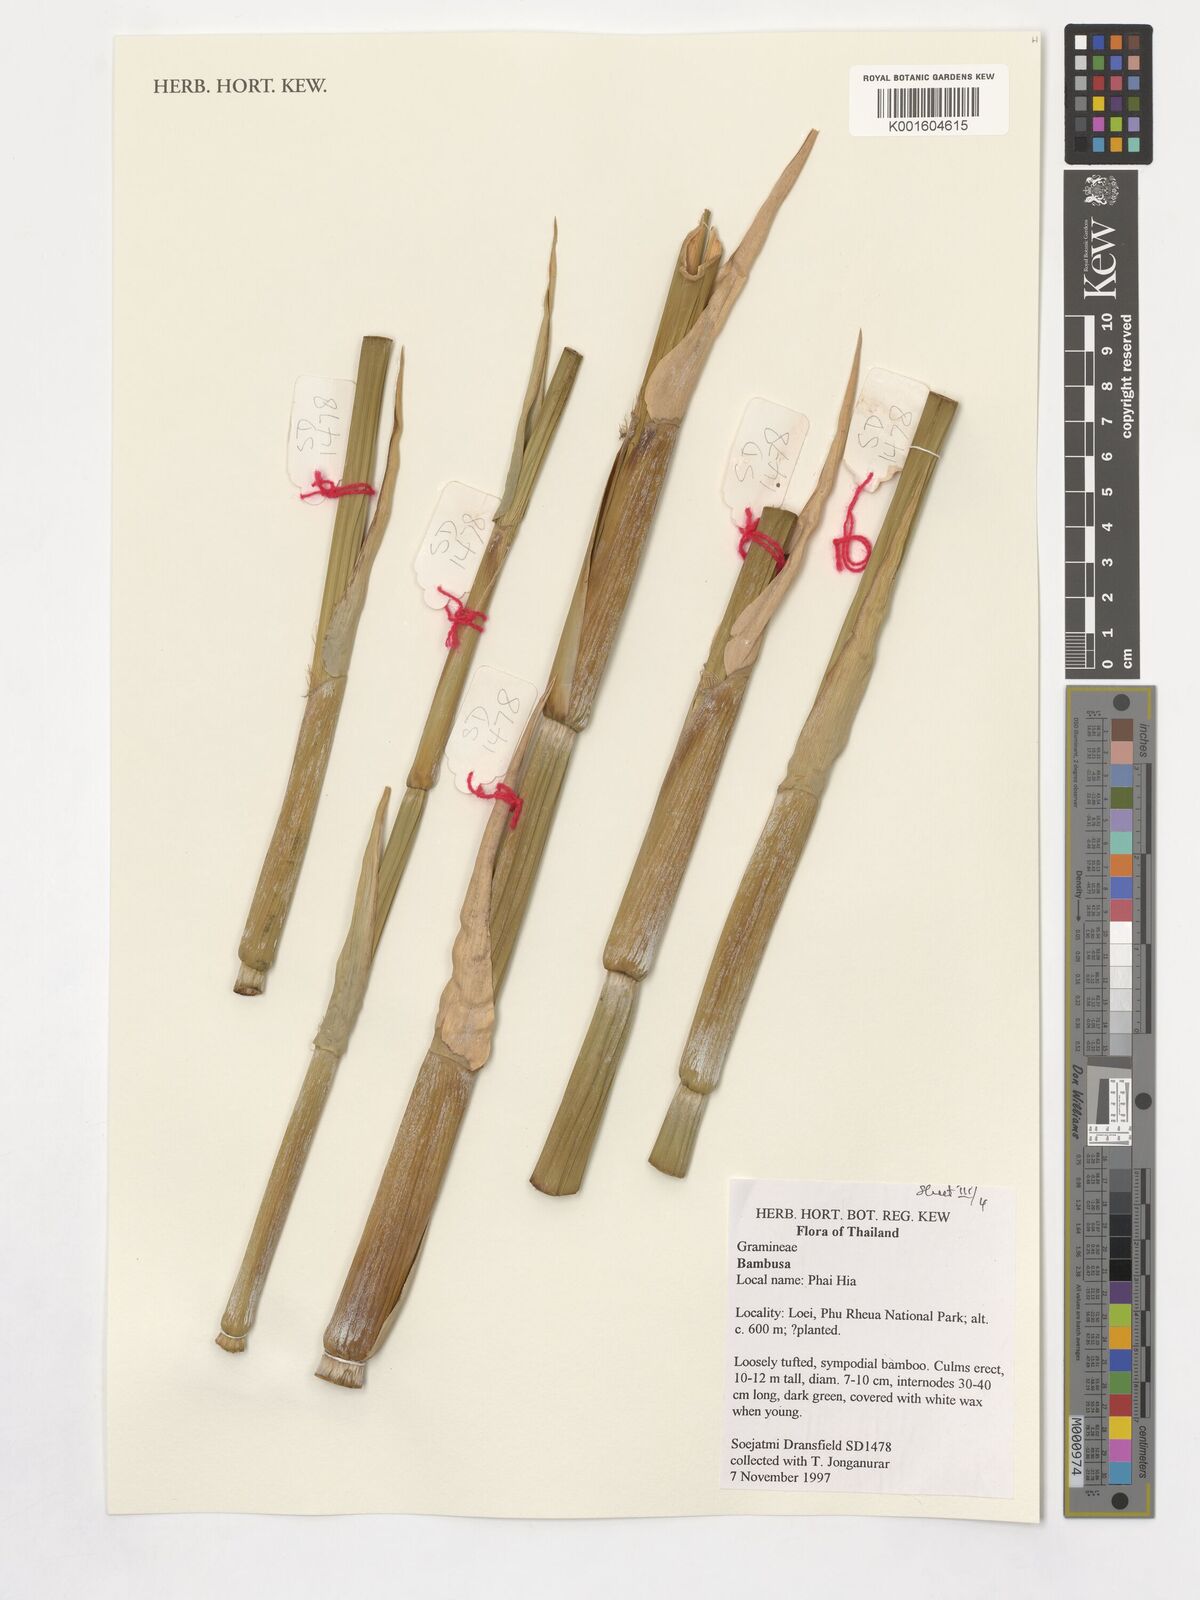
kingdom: Plantae
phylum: Tracheophyta
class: Liliopsida
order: Poales
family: Poaceae
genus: Guadua
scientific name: Guadua
